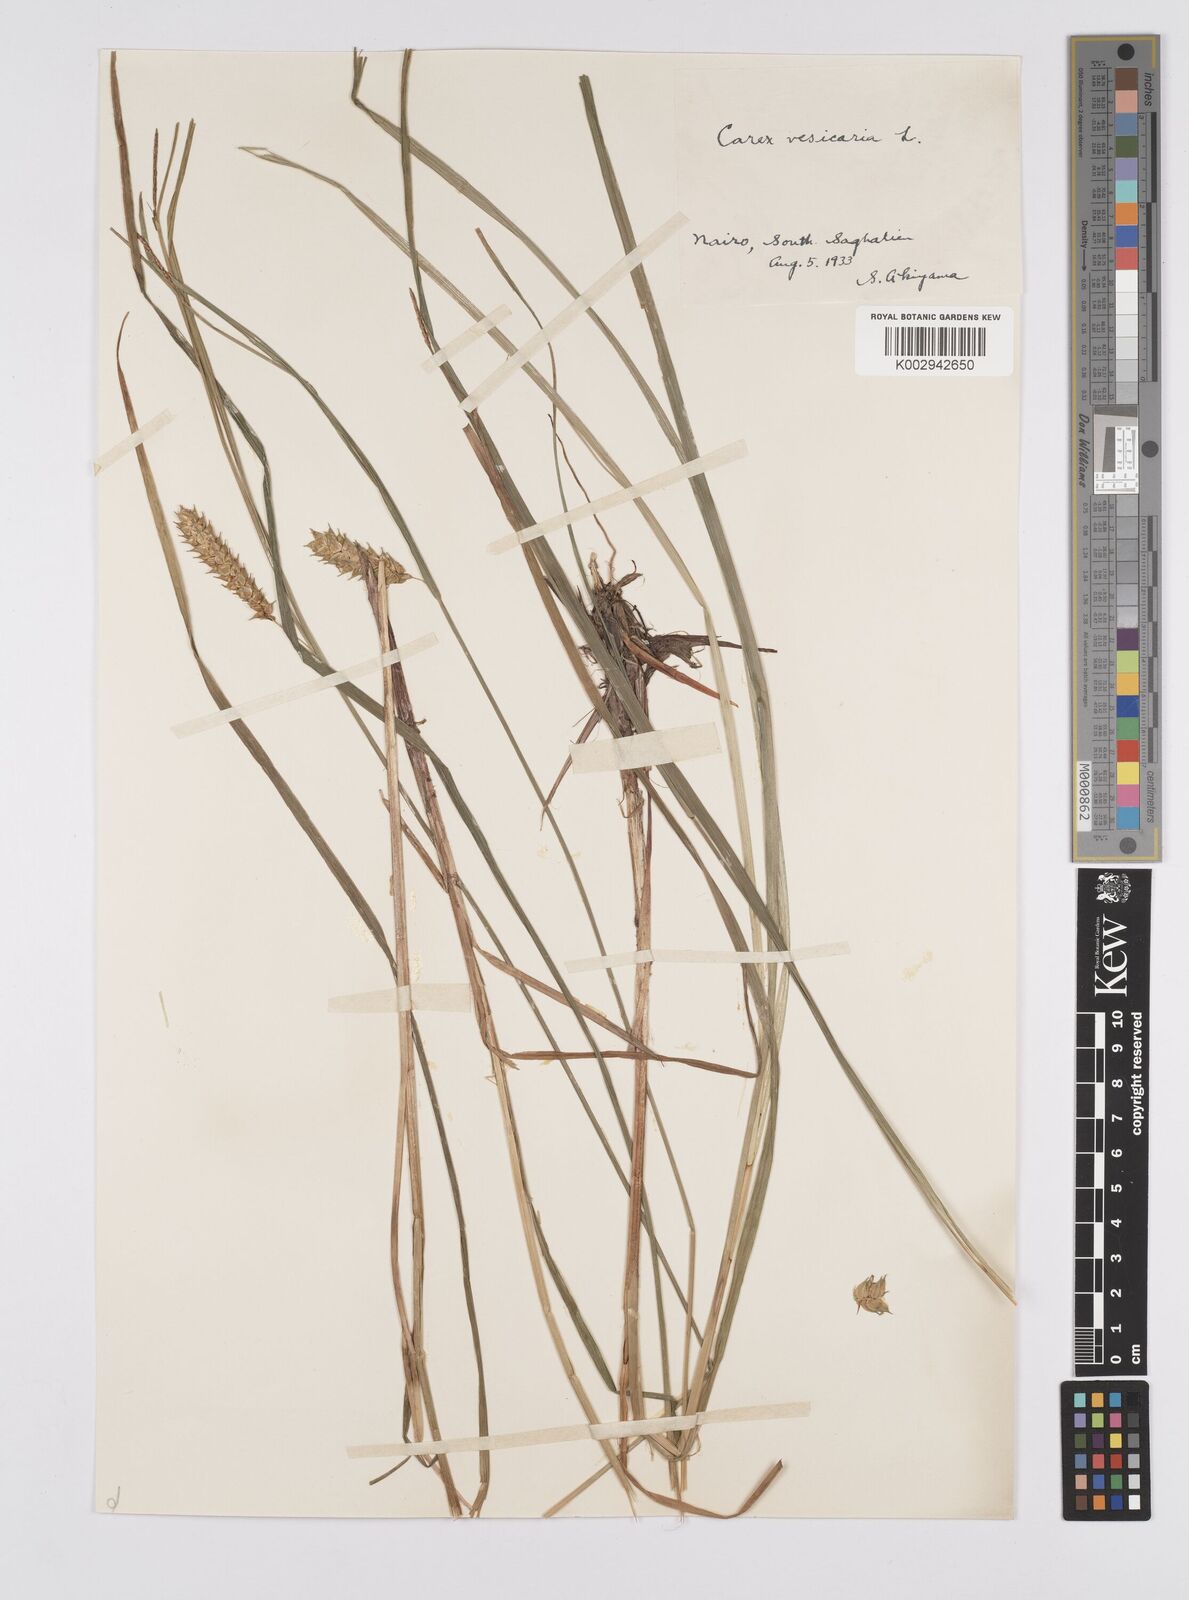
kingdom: Plantae
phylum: Tracheophyta
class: Liliopsida
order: Poales
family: Cyperaceae
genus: Carex
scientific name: Carex vesicaria
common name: Bladder-sedge
